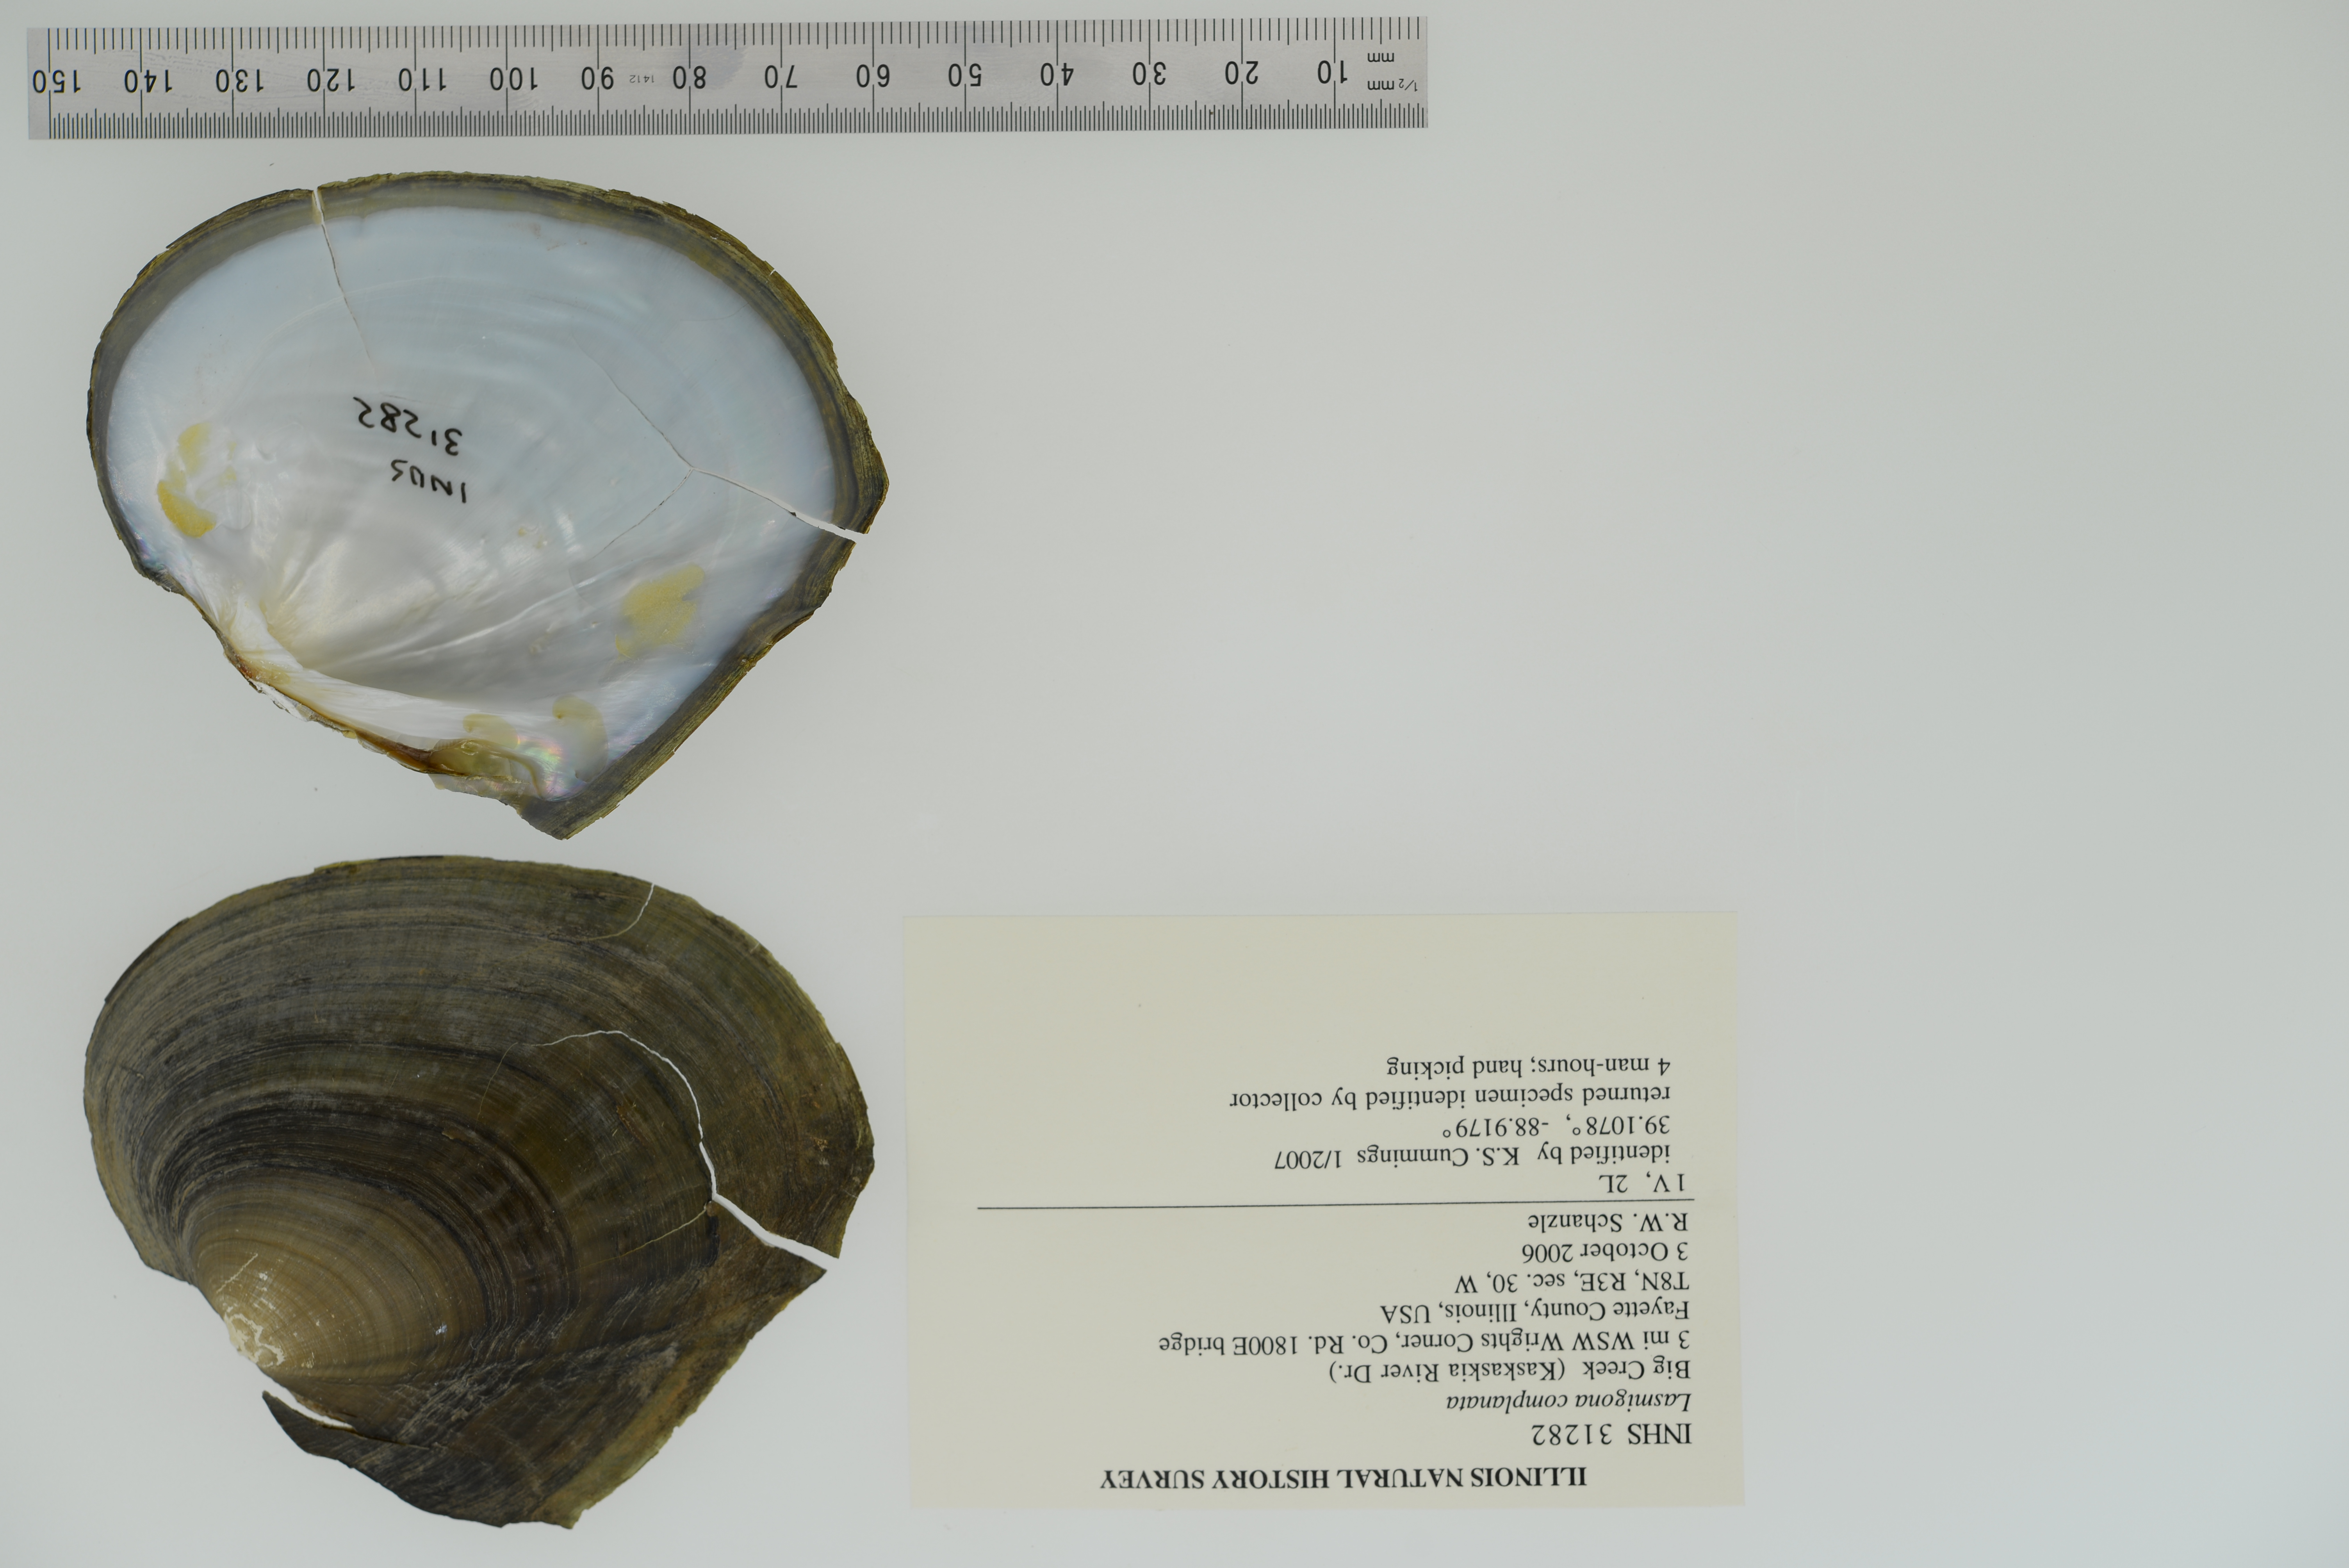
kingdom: Animalia
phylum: Mollusca
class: Bivalvia
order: Unionida
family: Unionidae
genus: Lasmigona
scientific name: Lasmigona complanata
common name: White heelsplitter
